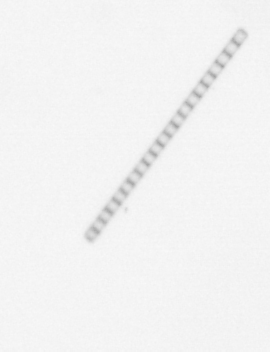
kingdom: Chromista
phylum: Ochrophyta
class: Bacillariophyceae
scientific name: Bacillariophyceae
